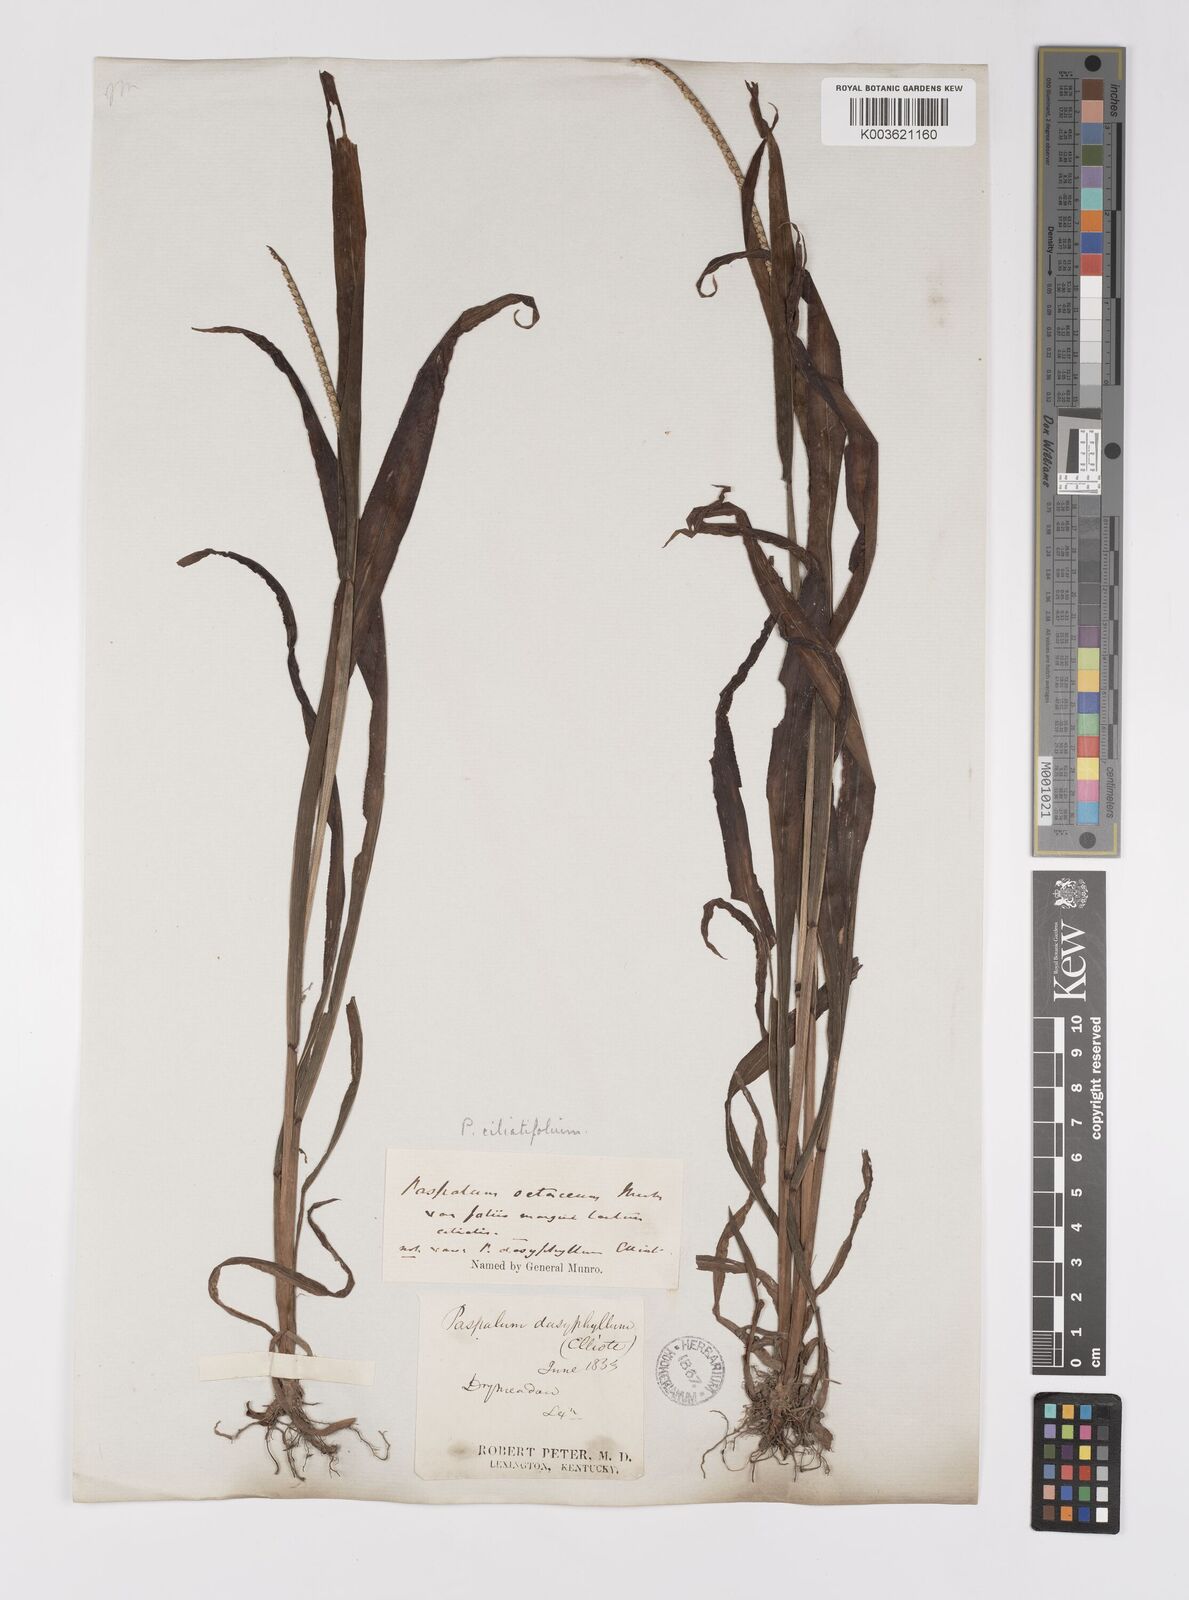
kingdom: Plantae
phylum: Tracheophyta
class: Liliopsida
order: Poales
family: Poaceae
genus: Paspalum
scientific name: Paspalum setaceum
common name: Slender paspalum
